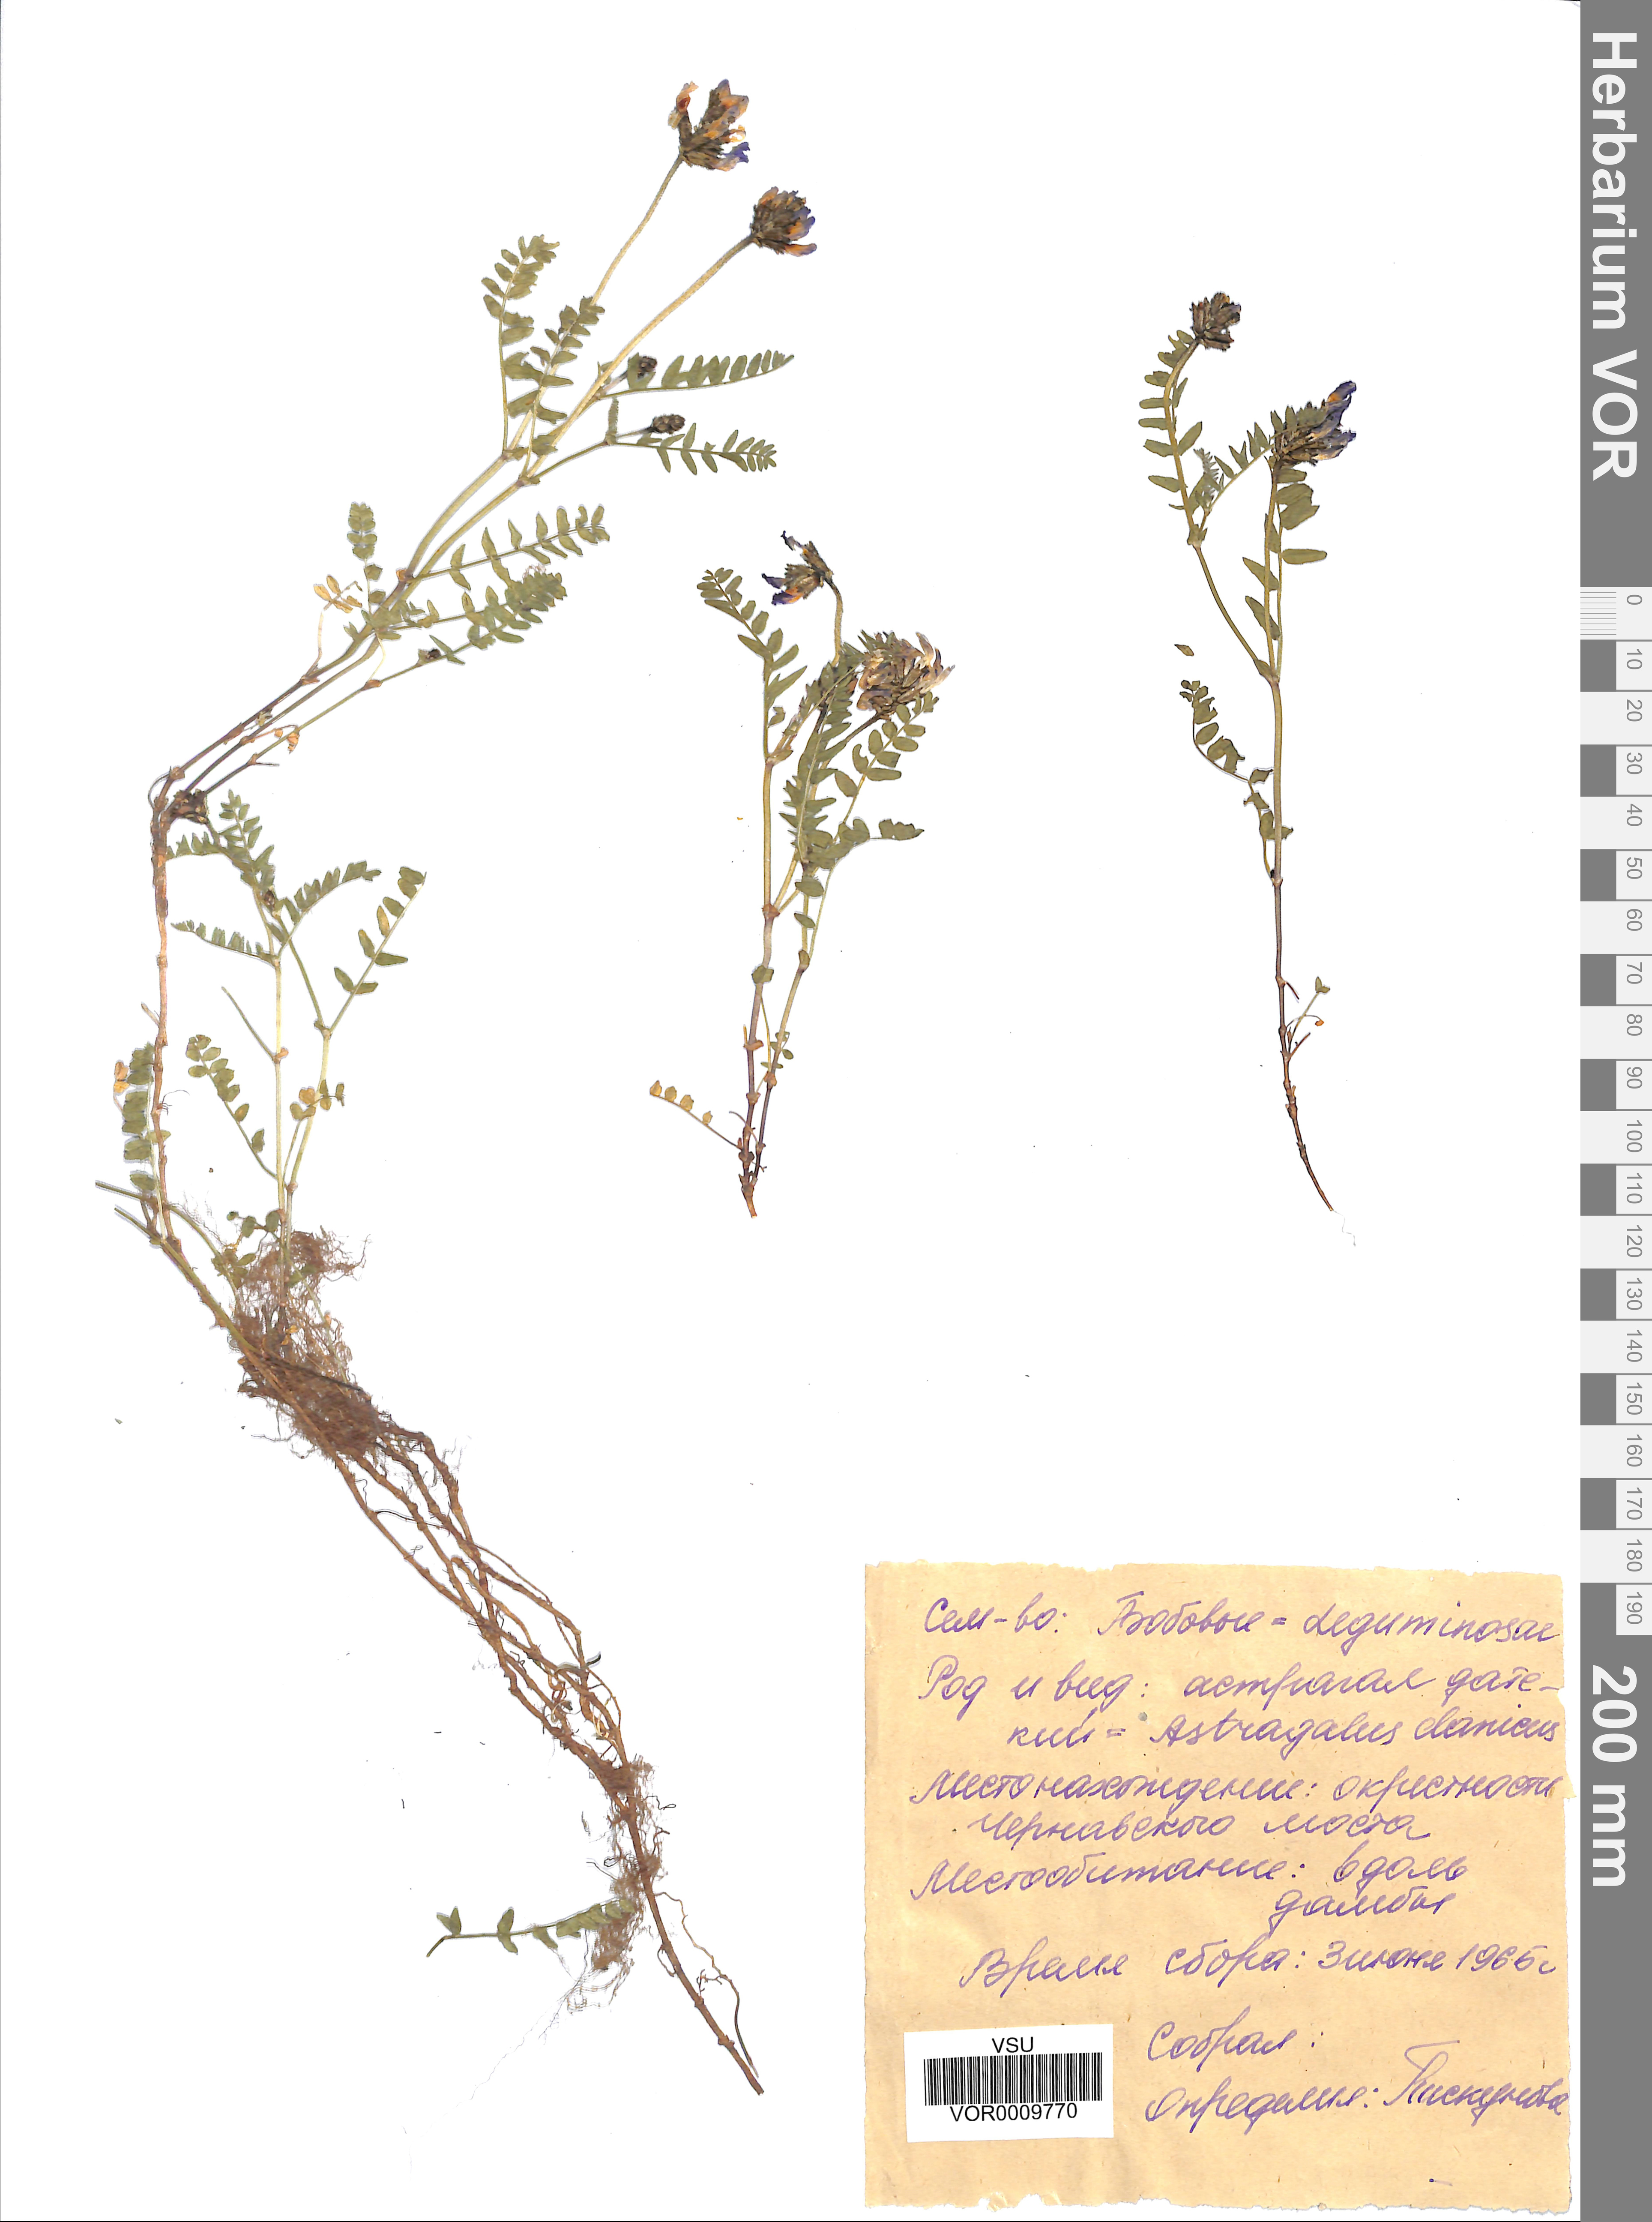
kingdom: Plantae
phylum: Tracheophyta
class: Magnoliopsida
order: Fabales
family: Fabaceae
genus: Astragalus
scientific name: Astragalus danicus
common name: Purple milk-vetch
